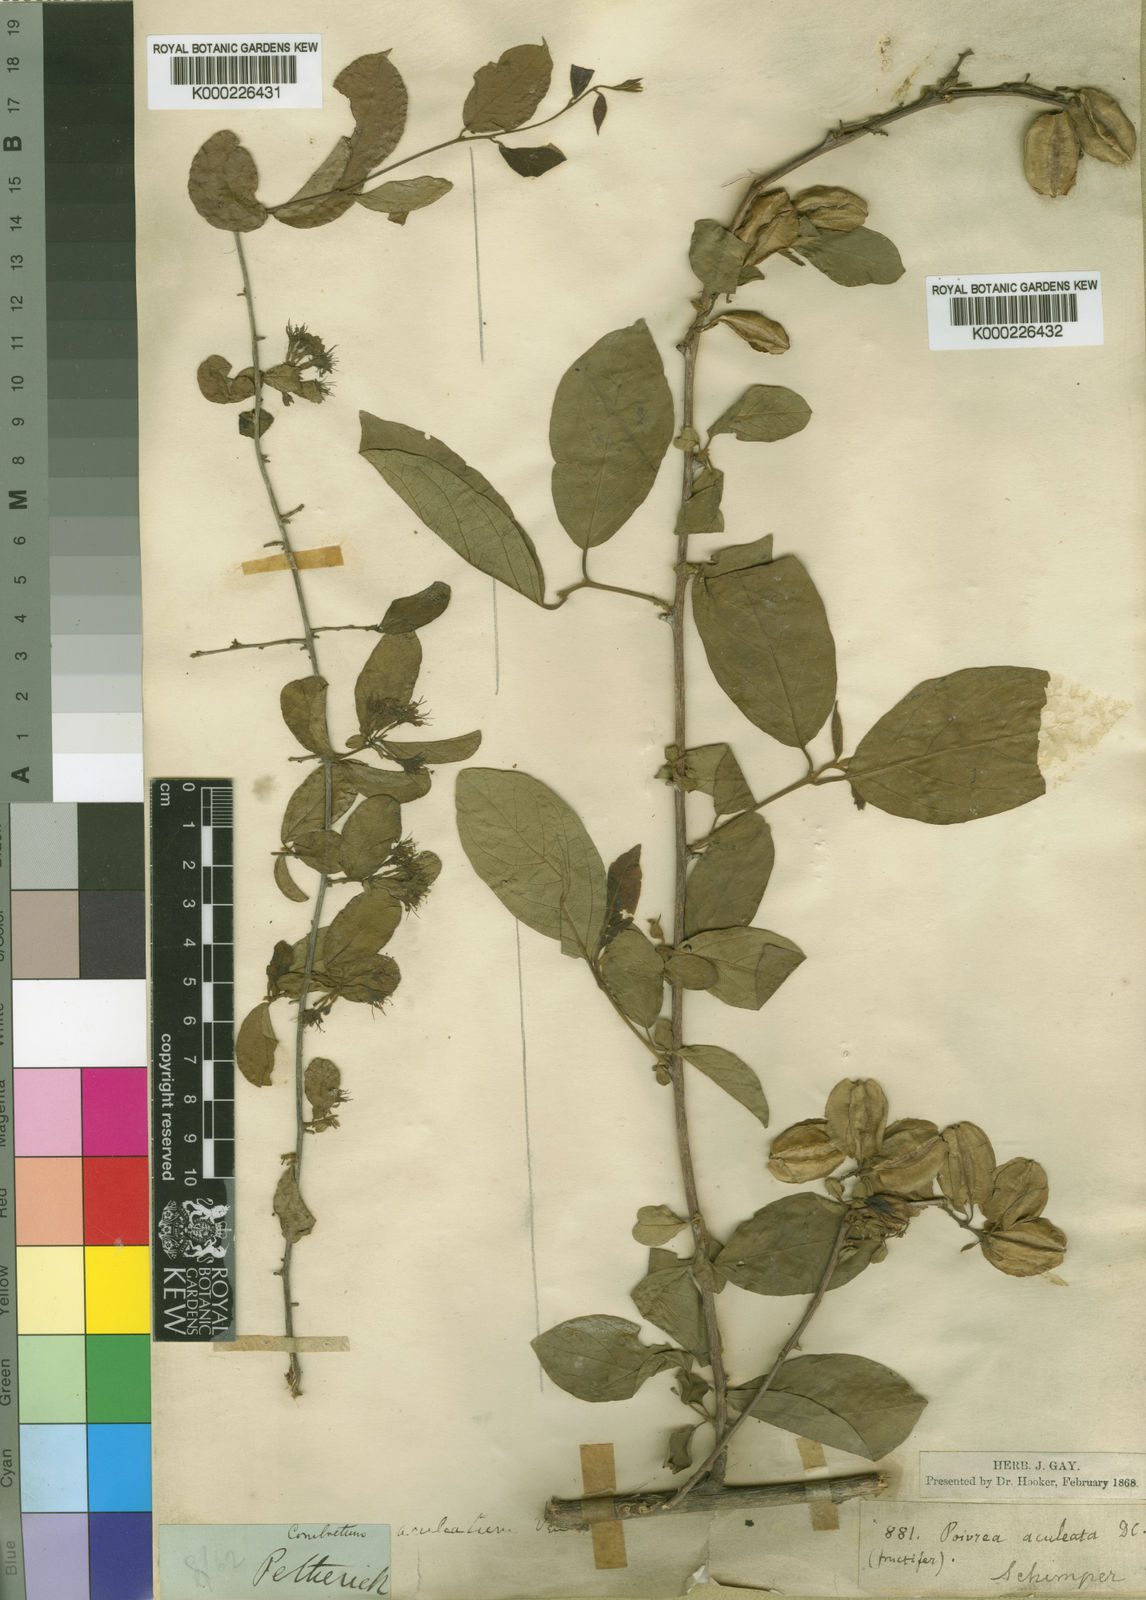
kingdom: Plantae
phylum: Tracheophyta
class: Magnoliopsida
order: Myrtales
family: Combretaceae
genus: Combretum
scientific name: Combretum aculeatum
